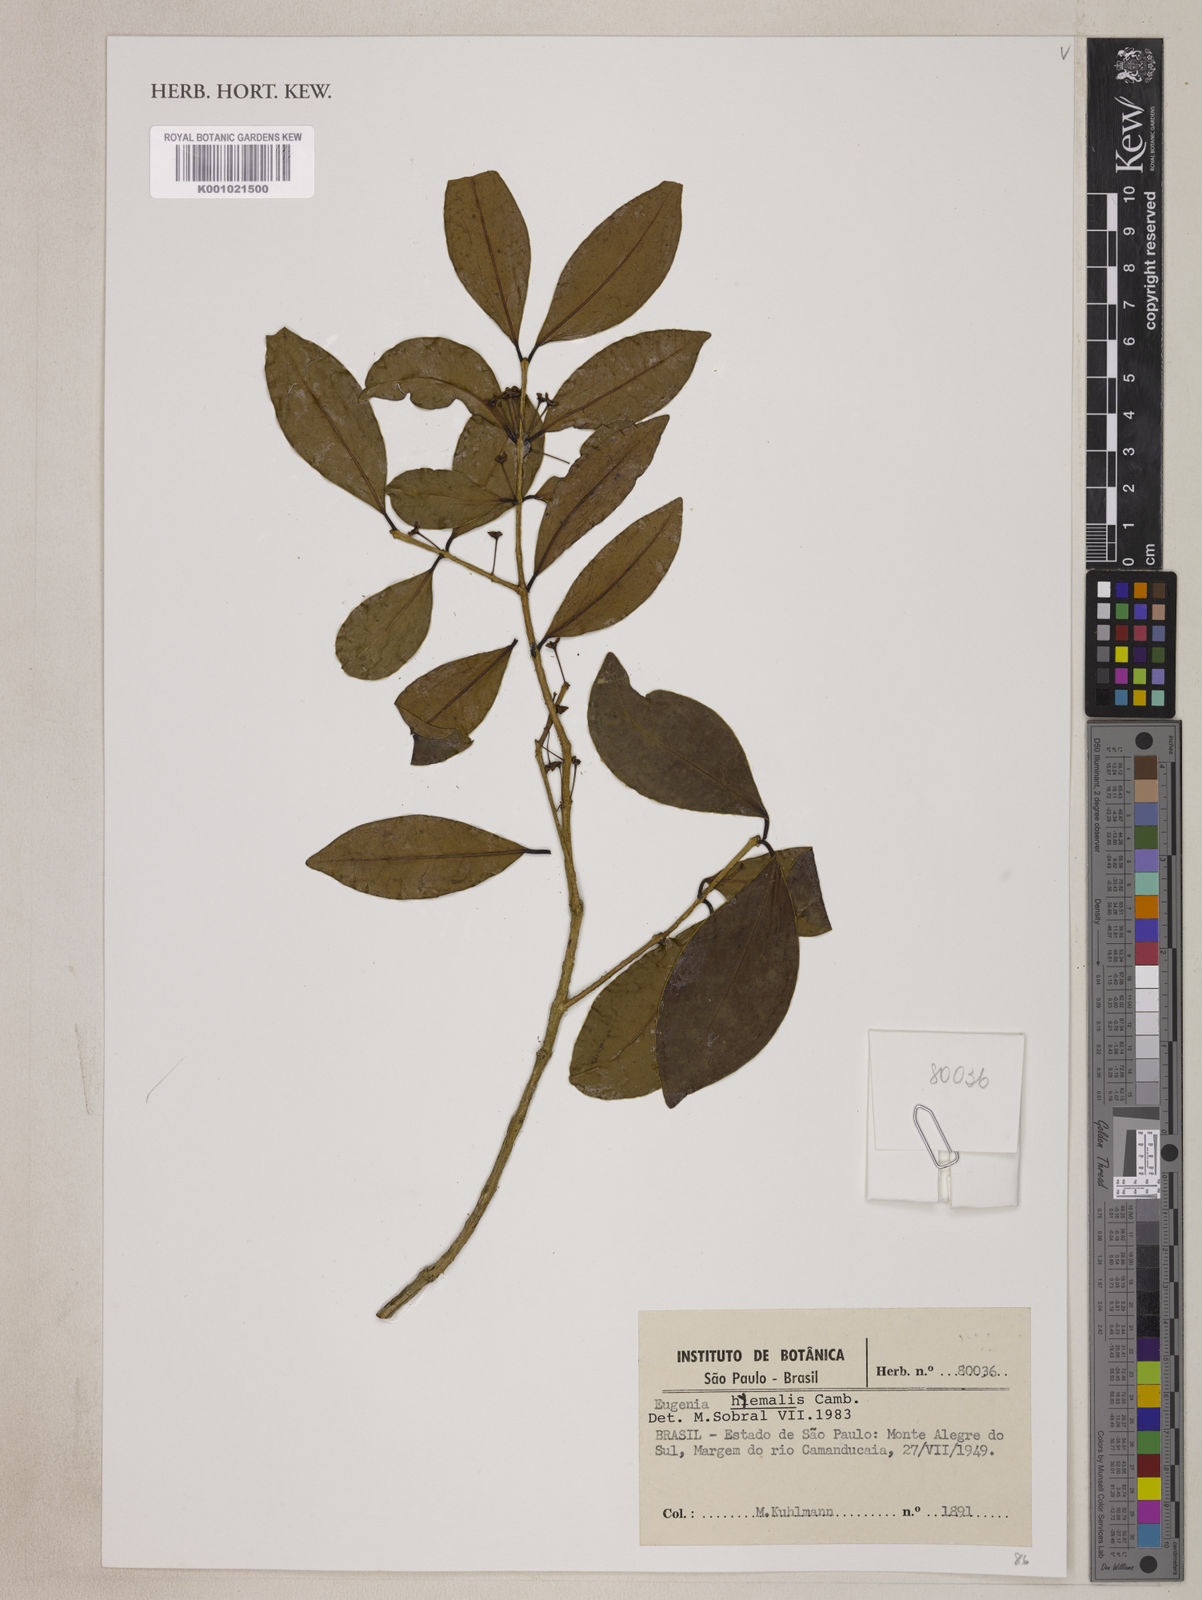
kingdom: Plantae
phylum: Tracheophyta
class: Magnoliopsida
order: Myrtales
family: Myrtaceae
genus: Eugenia
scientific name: Eugenia hiemalis
